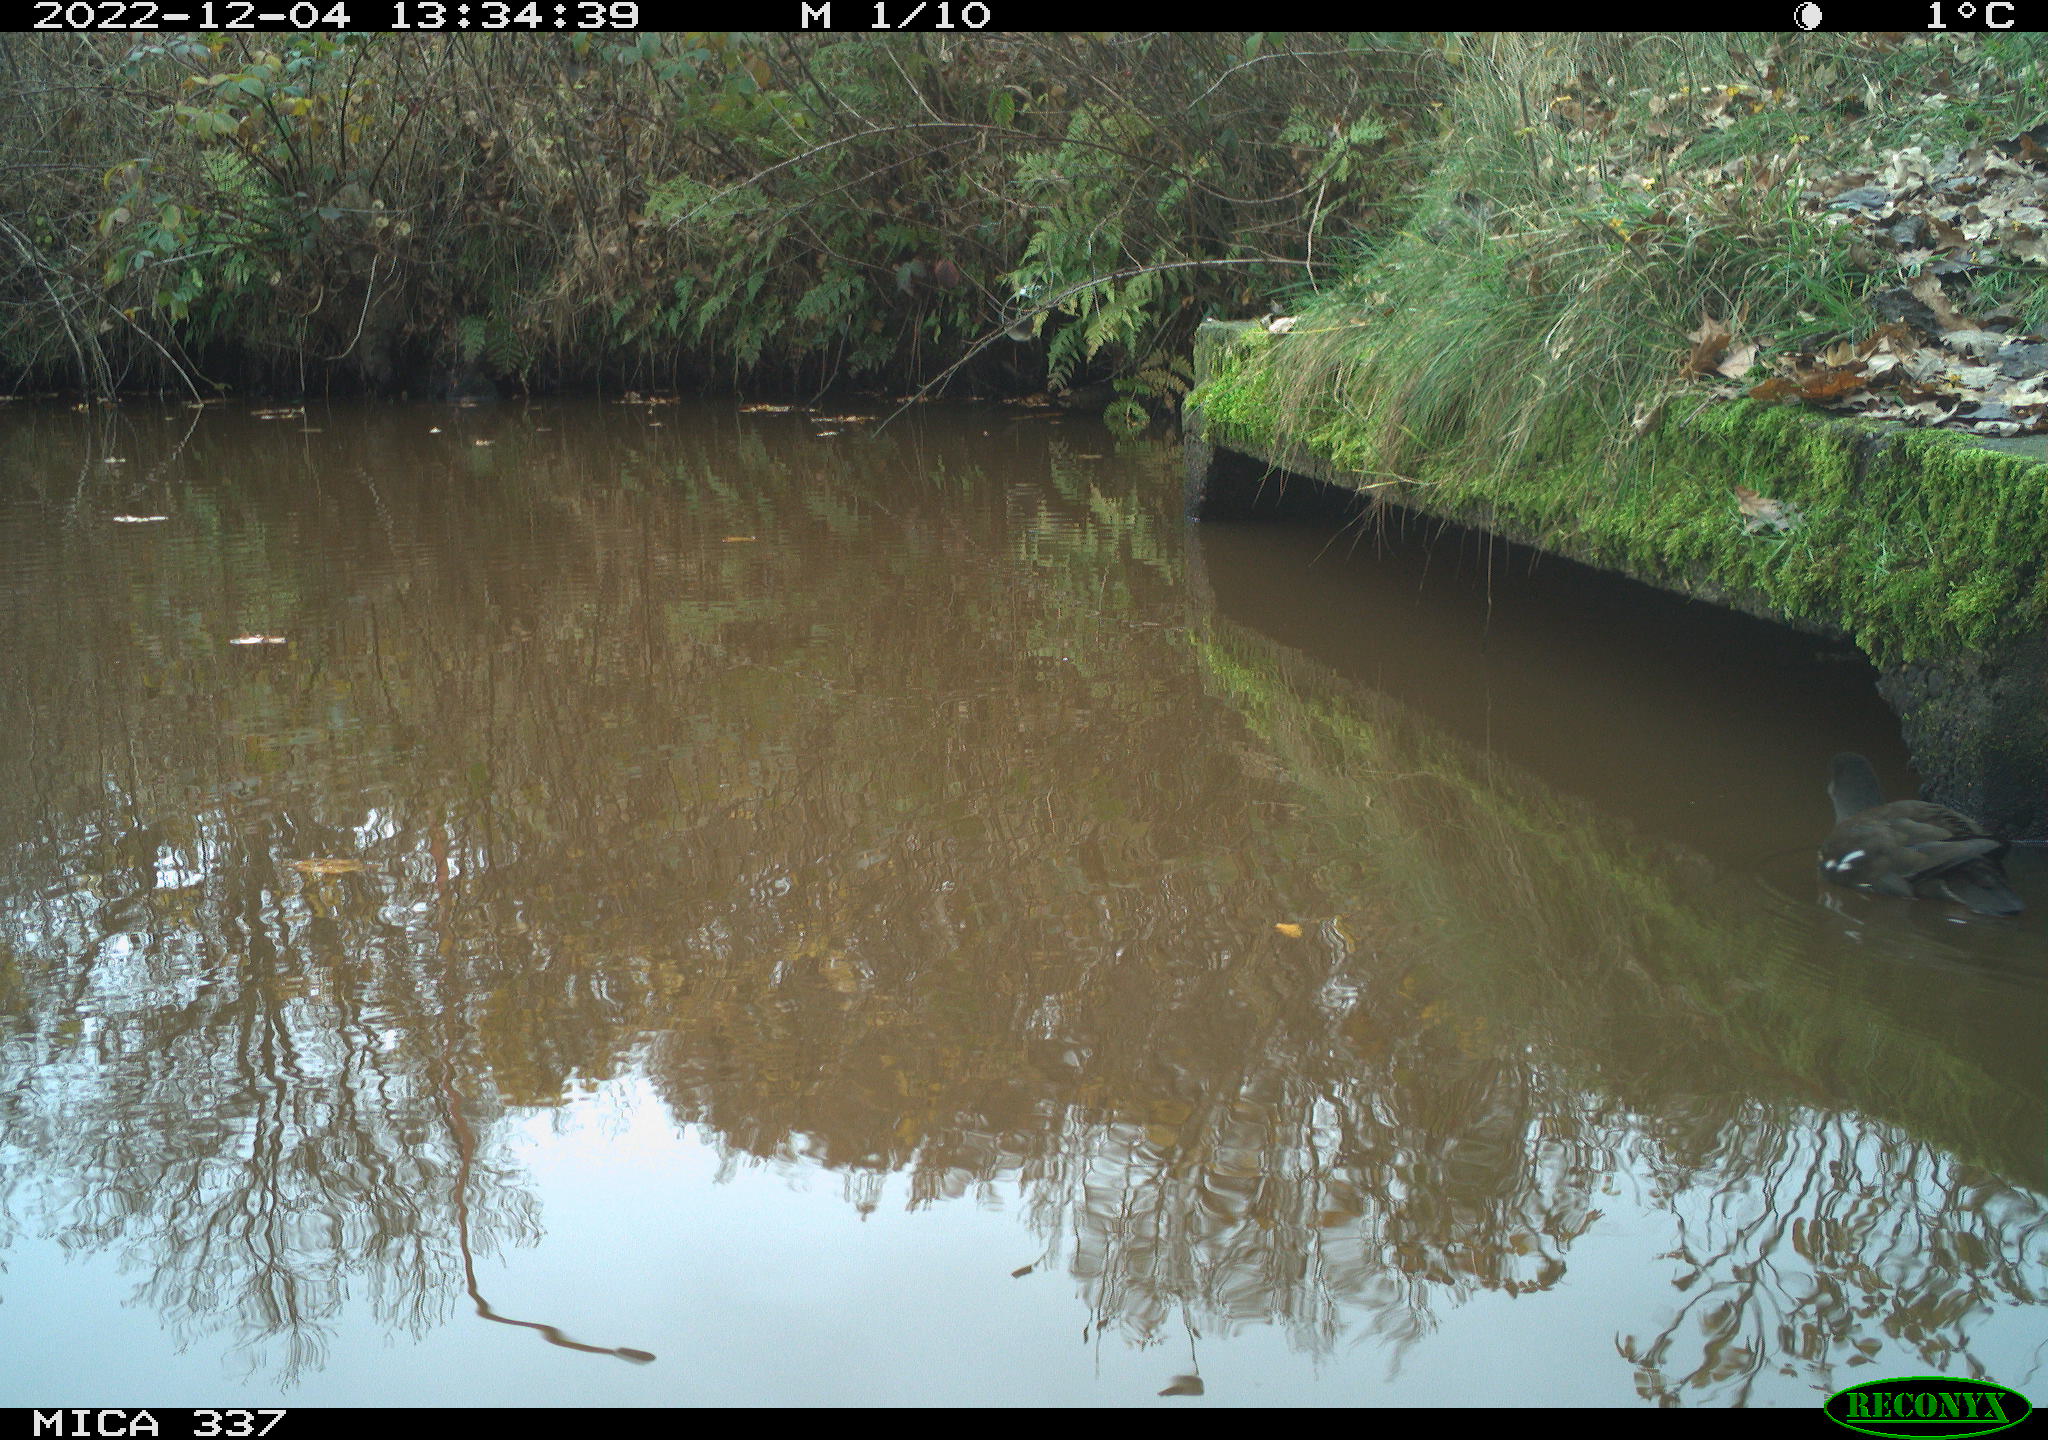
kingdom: Animalia
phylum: Chordata
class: Aves
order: Gruiformes
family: Rallidae
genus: Gallinula
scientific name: Gallinula chloropus
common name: Common moorhen
